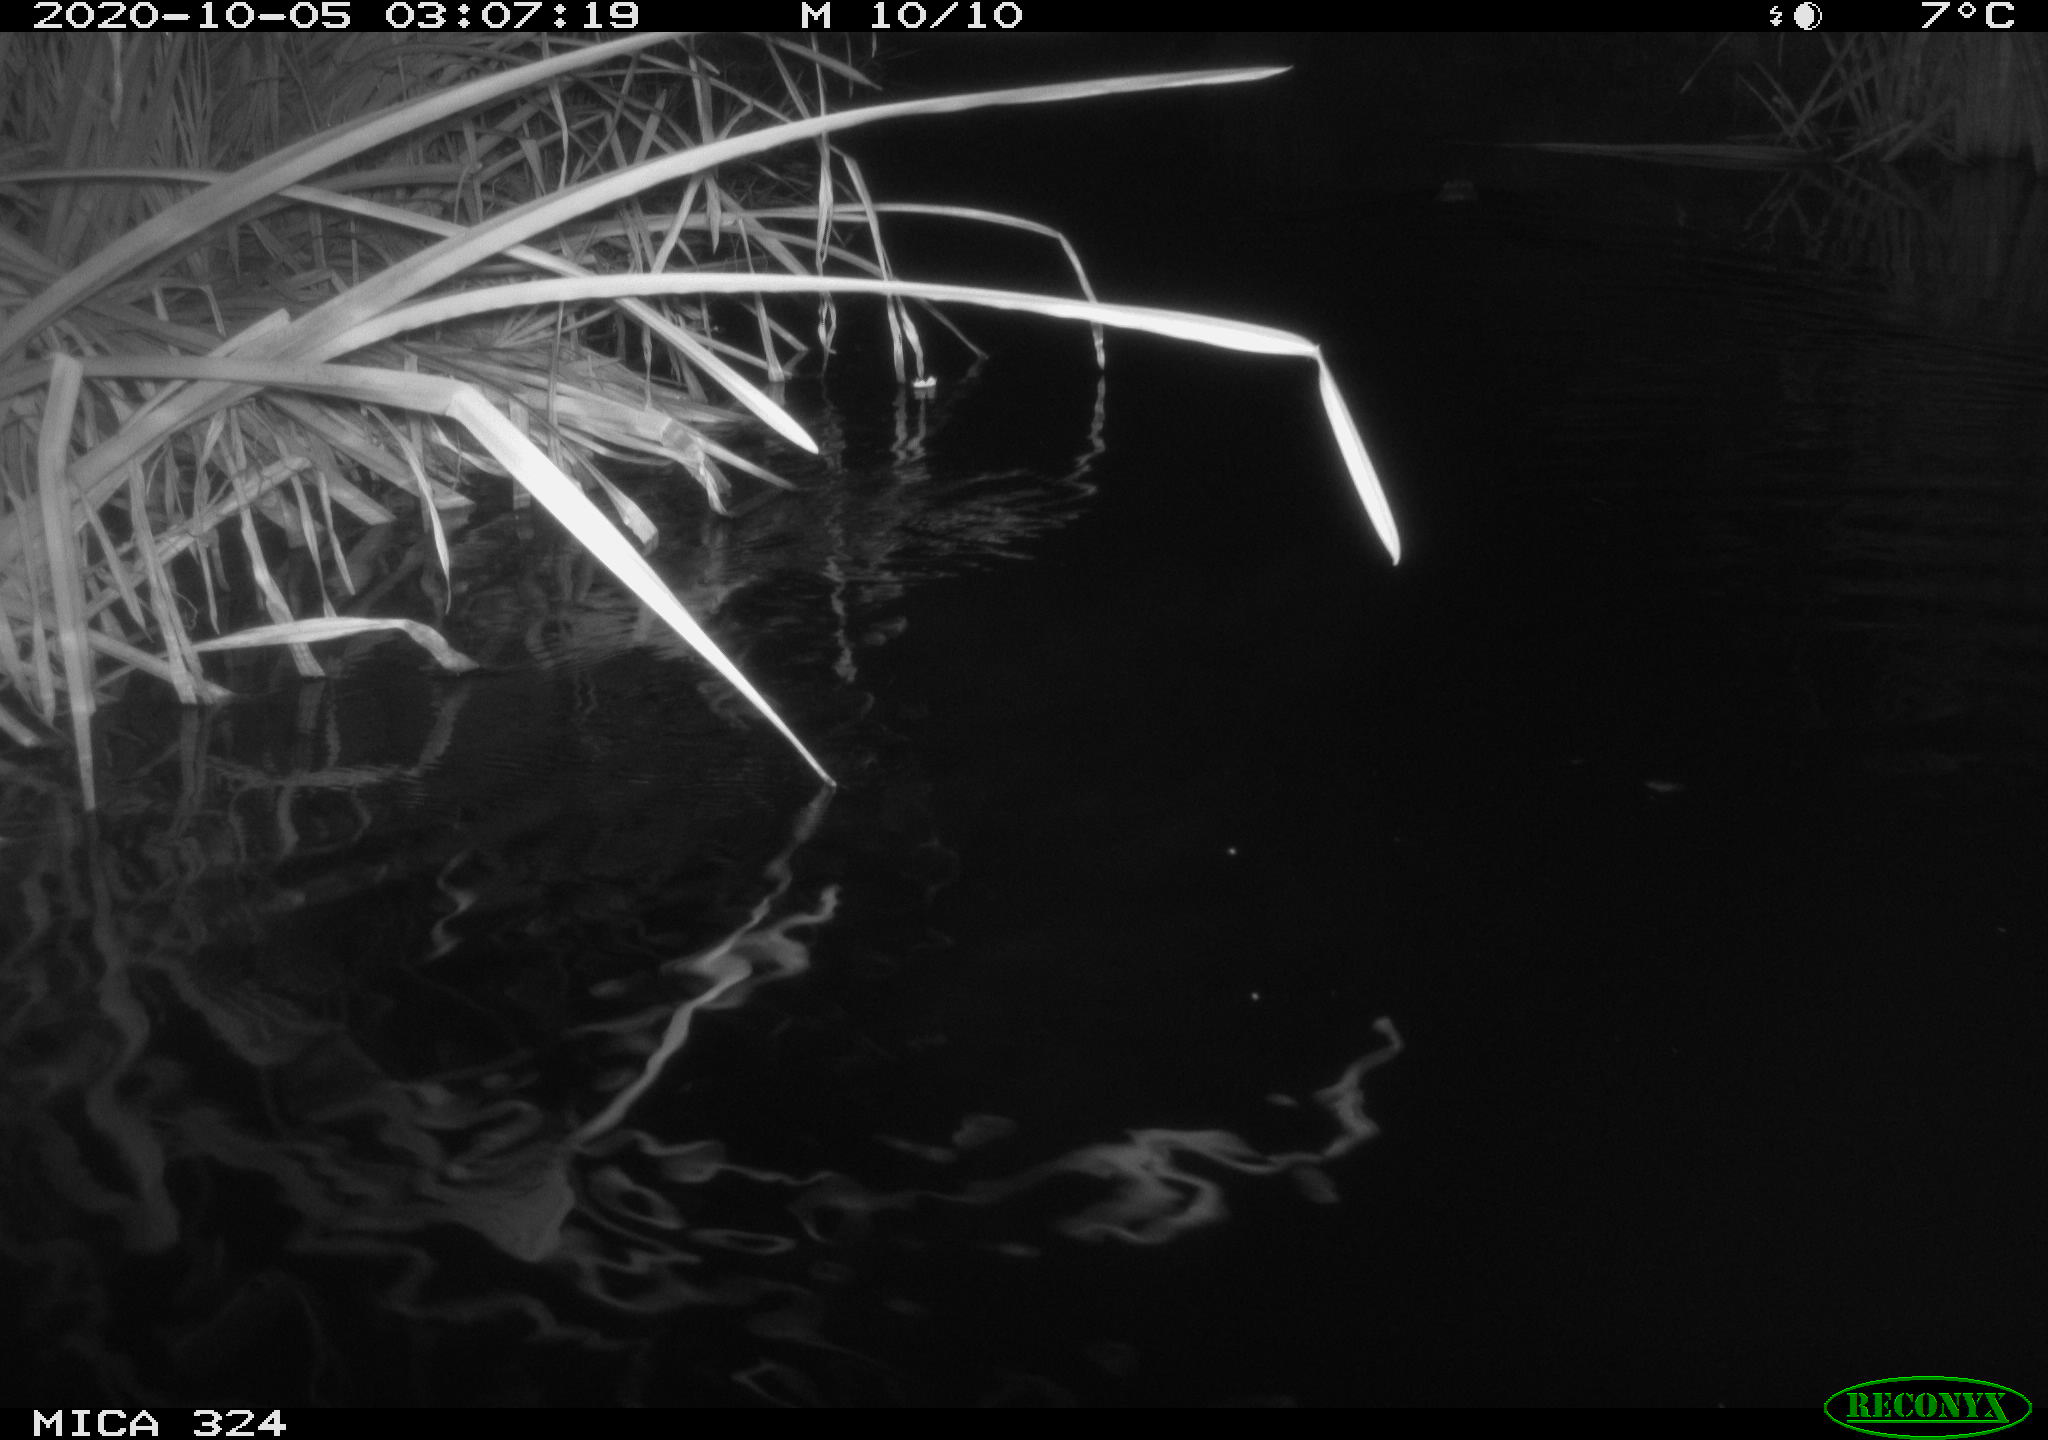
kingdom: Animalia
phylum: Chordata
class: Mammalia
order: Rodentia
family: Cricetidae
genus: Ondatra
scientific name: Ondatra zibethicus
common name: Muskrat
